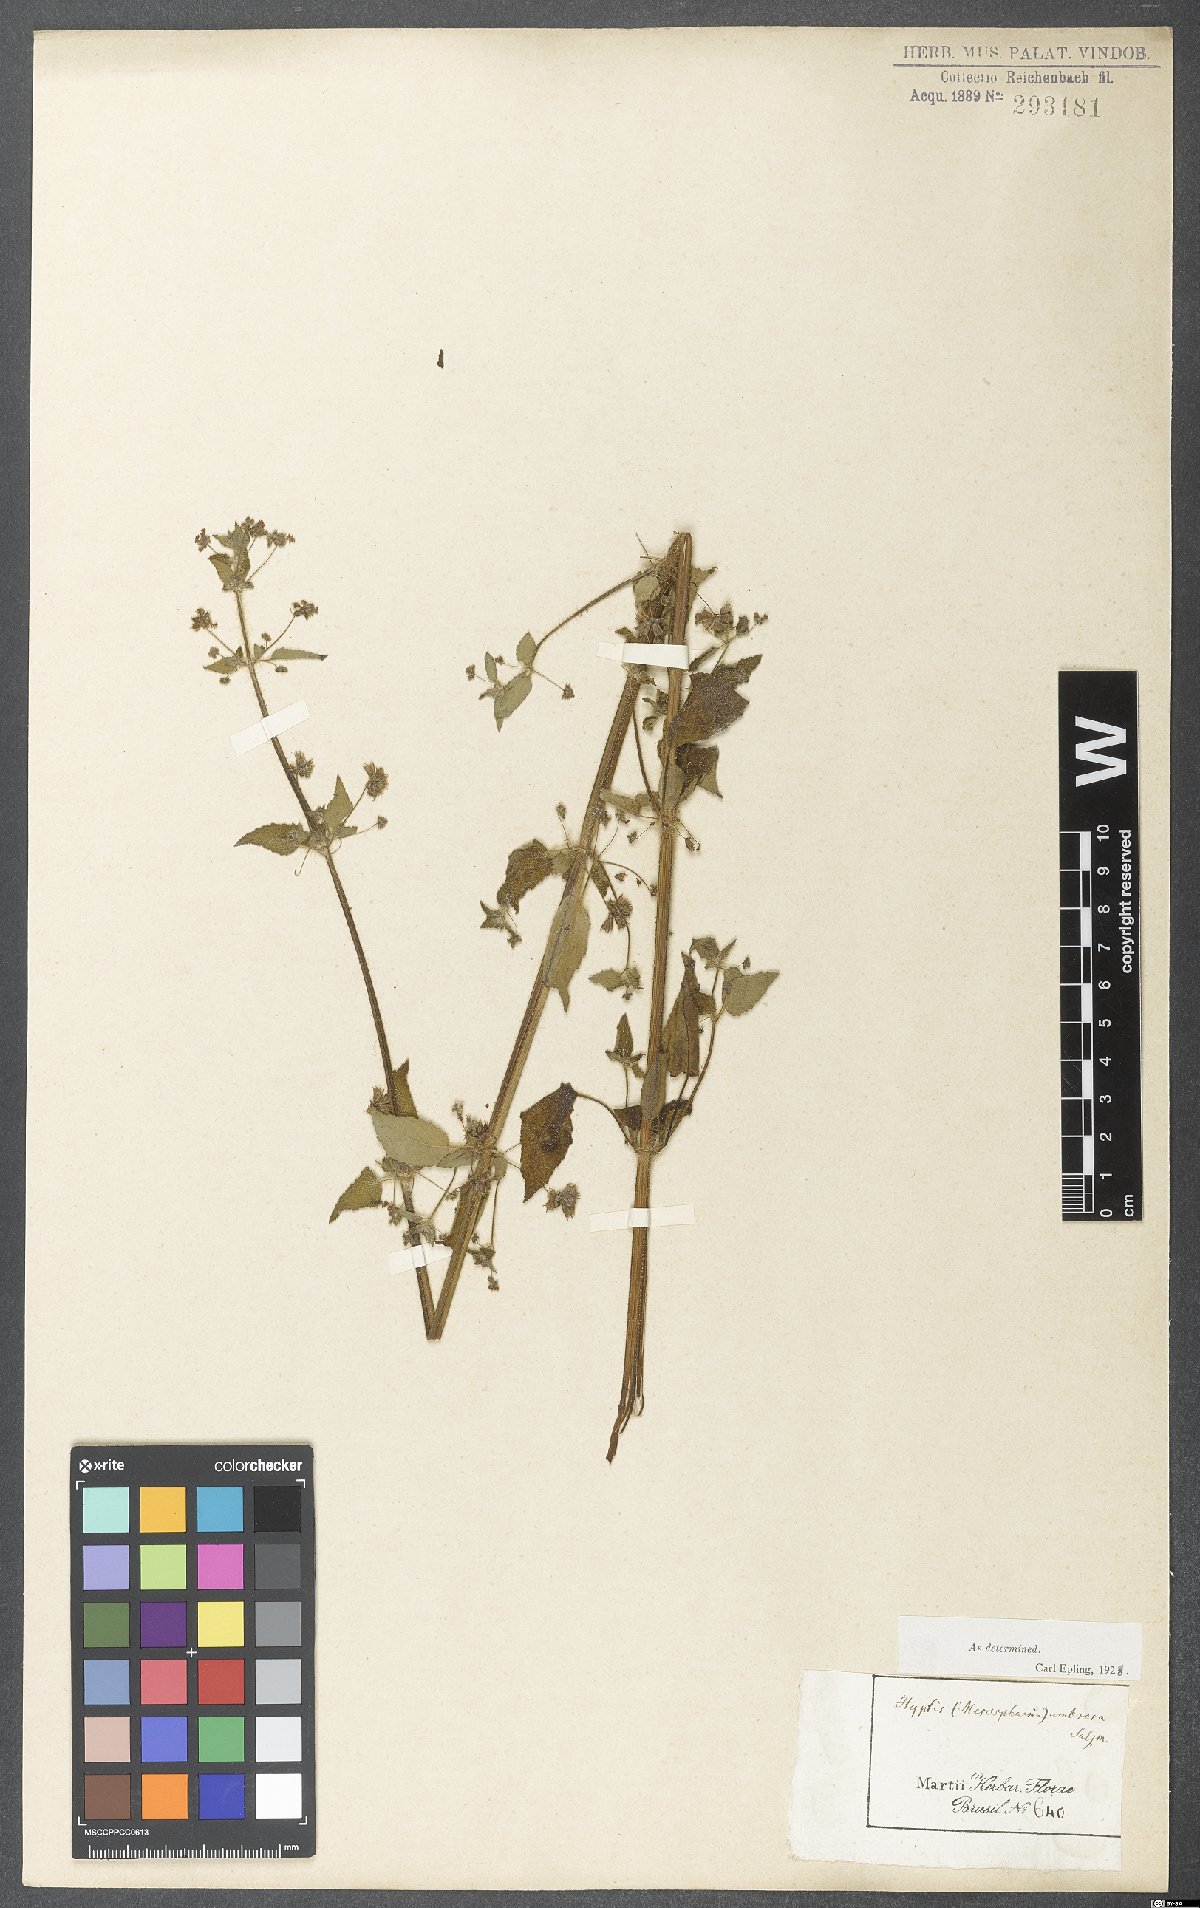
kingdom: Plantae
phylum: Tracheophyta
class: Magnoliopsida
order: Lamiales
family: Lamiaceae
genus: Mesosphaerum
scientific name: Mesosphaerum sidifolium
